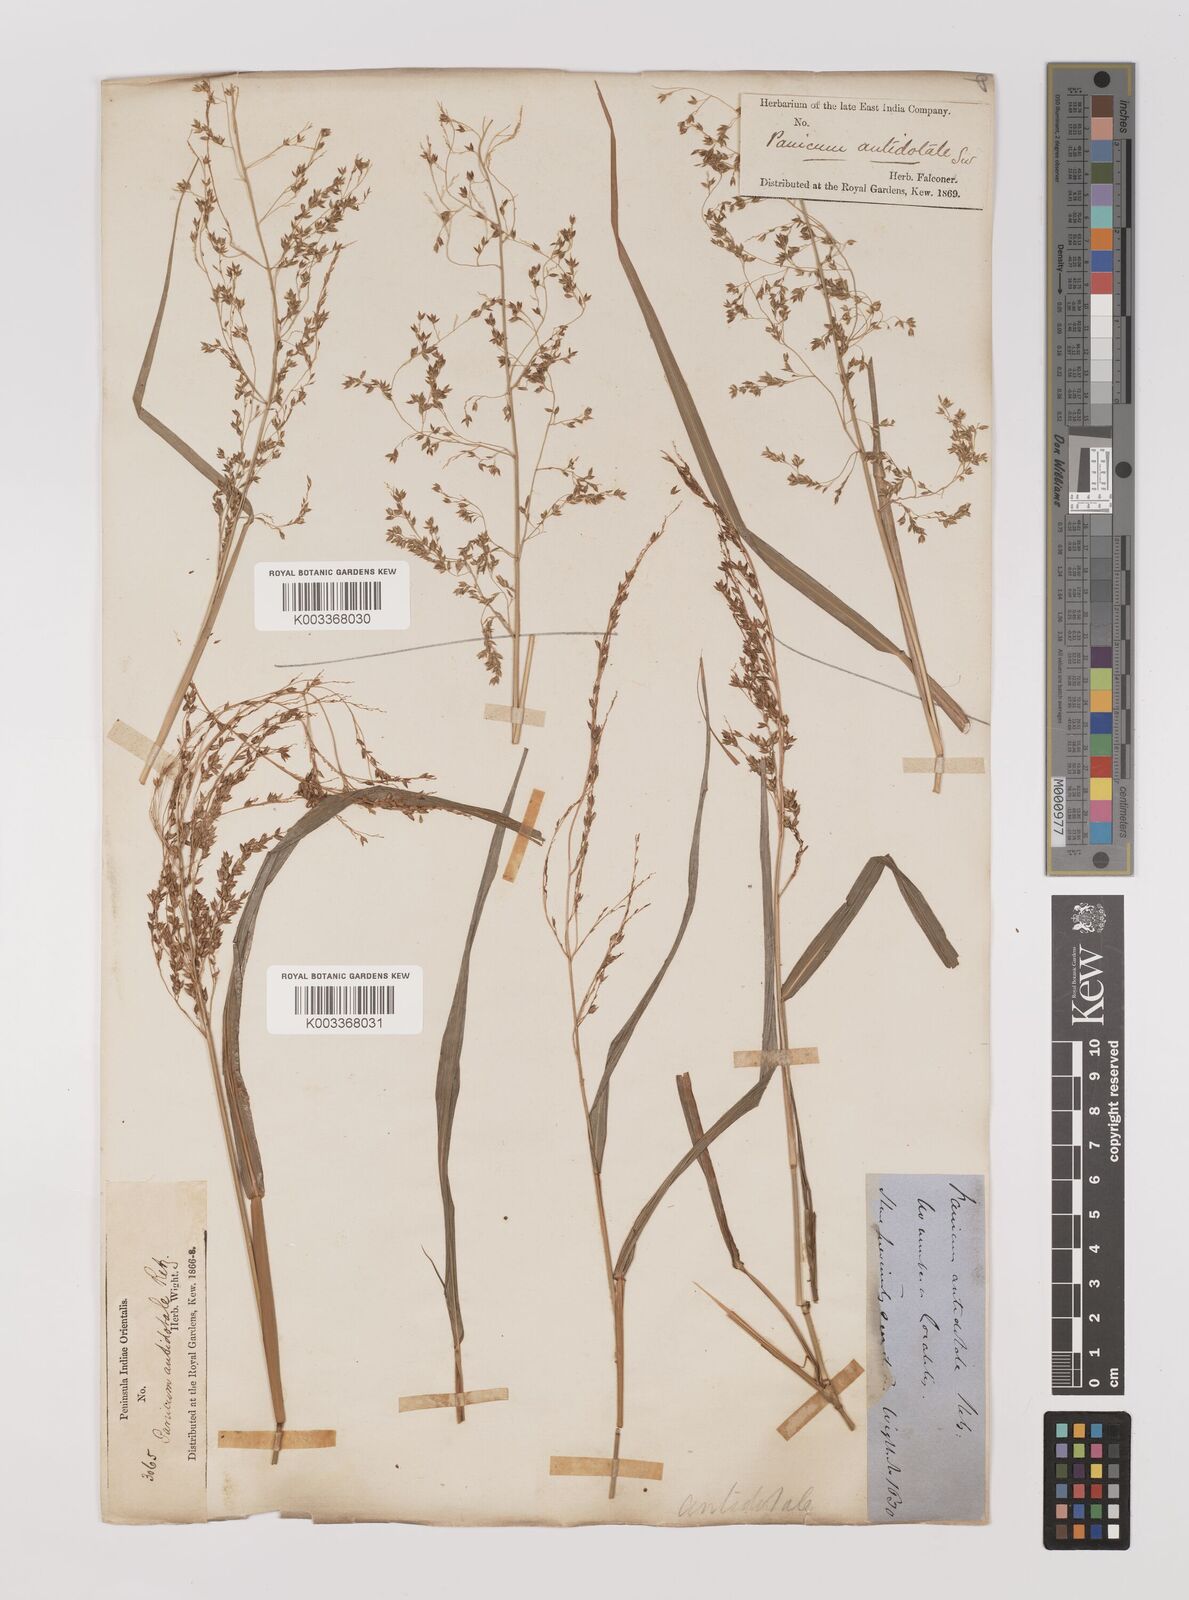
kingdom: Plantae
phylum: Tracheophyta
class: Liliopsida
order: Poales
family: Poaceae
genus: Panicum
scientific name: Panicum antidotale
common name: Blue panicum
